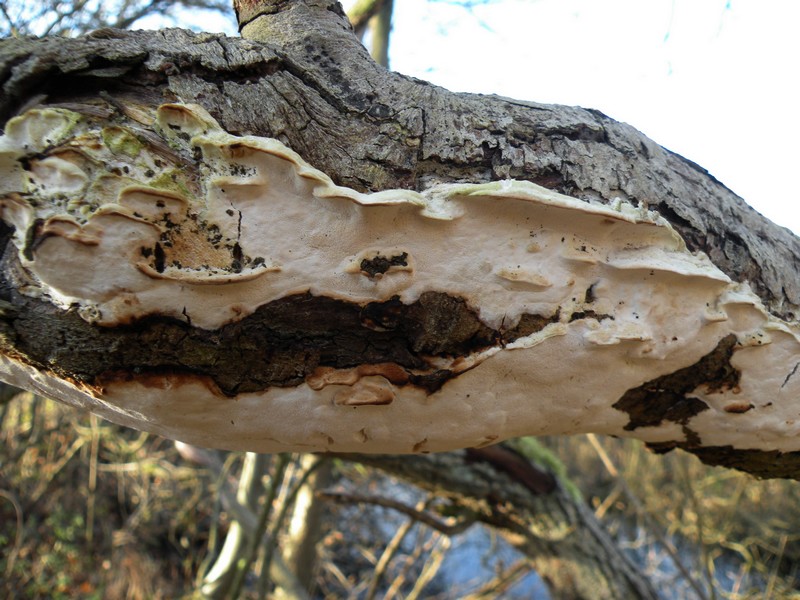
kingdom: Fungi
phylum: Basidiomycota
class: Agaricomycetes
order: Hymenochaetales
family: Oxyporaceae
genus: Oxyporus
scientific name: Oxyporus populinus
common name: sammenvokset trylleporesvamp
